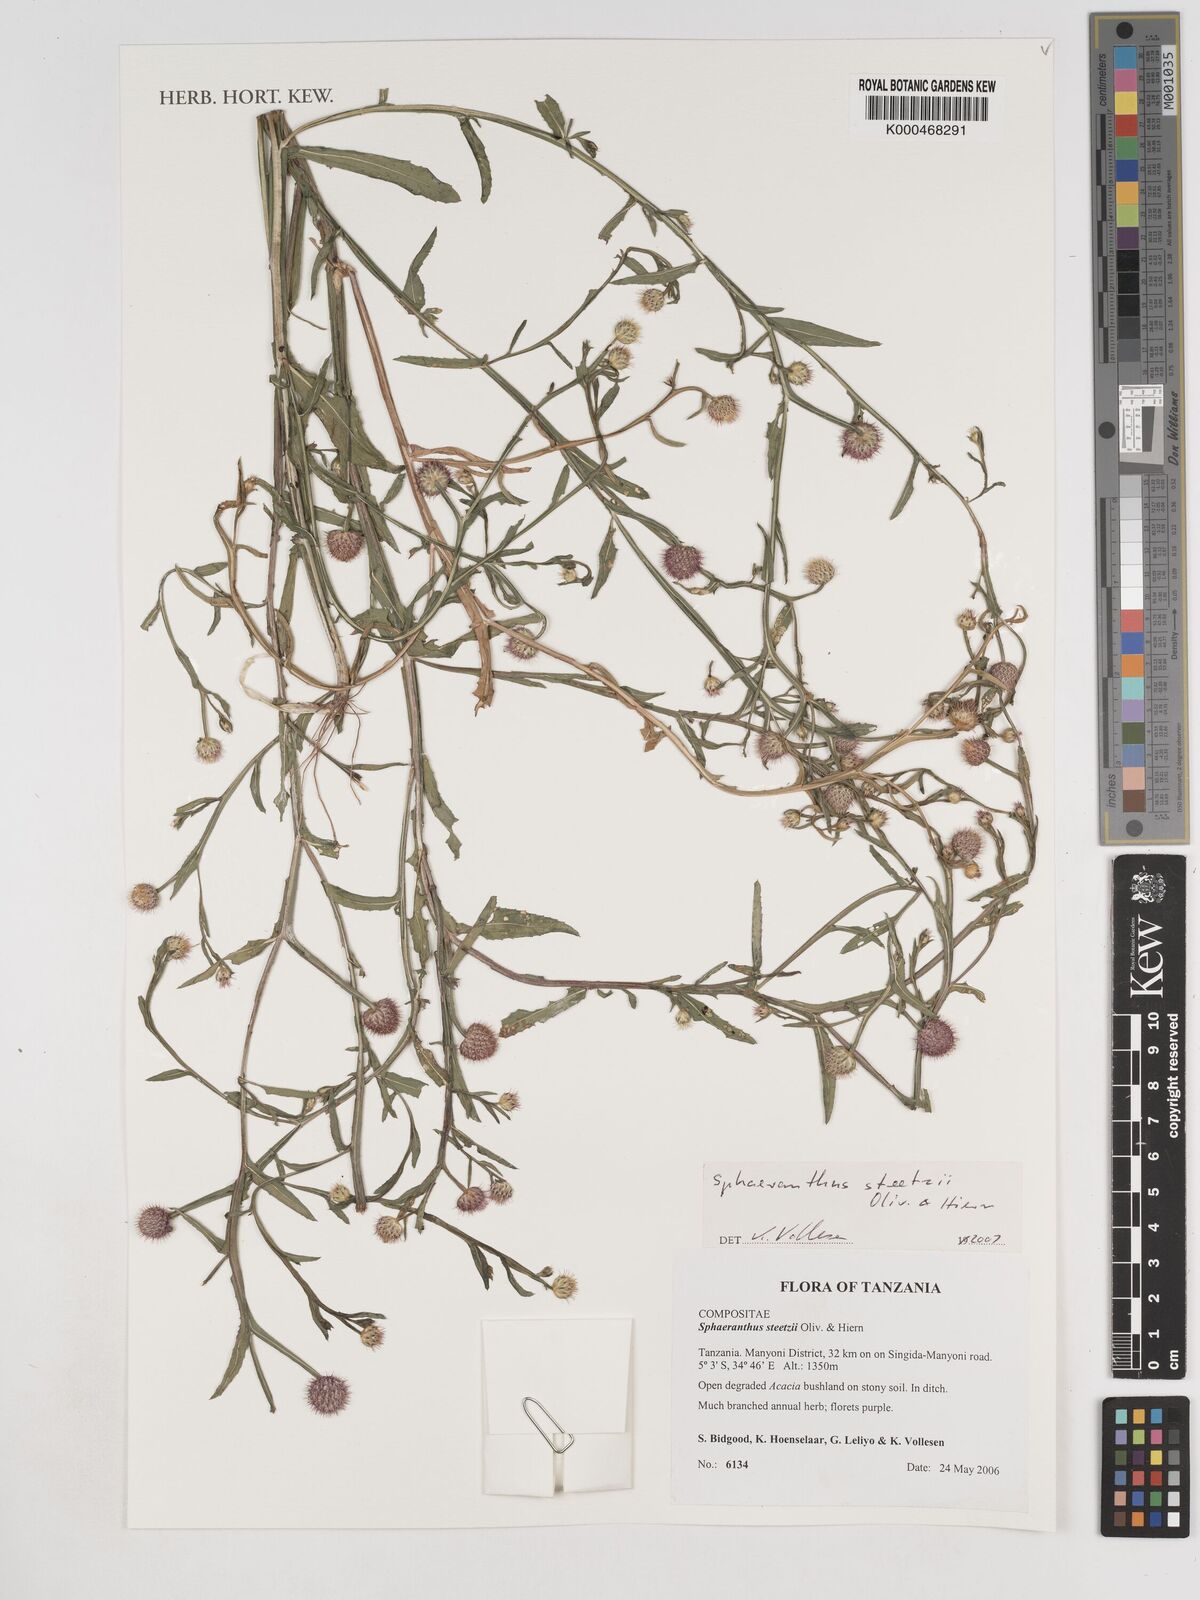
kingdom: Plantae
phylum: Tracheophyta
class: Magnoliopsida
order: Asterales
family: Asteraceae
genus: Sphaeranthus
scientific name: Sphaeranthus steetzii
